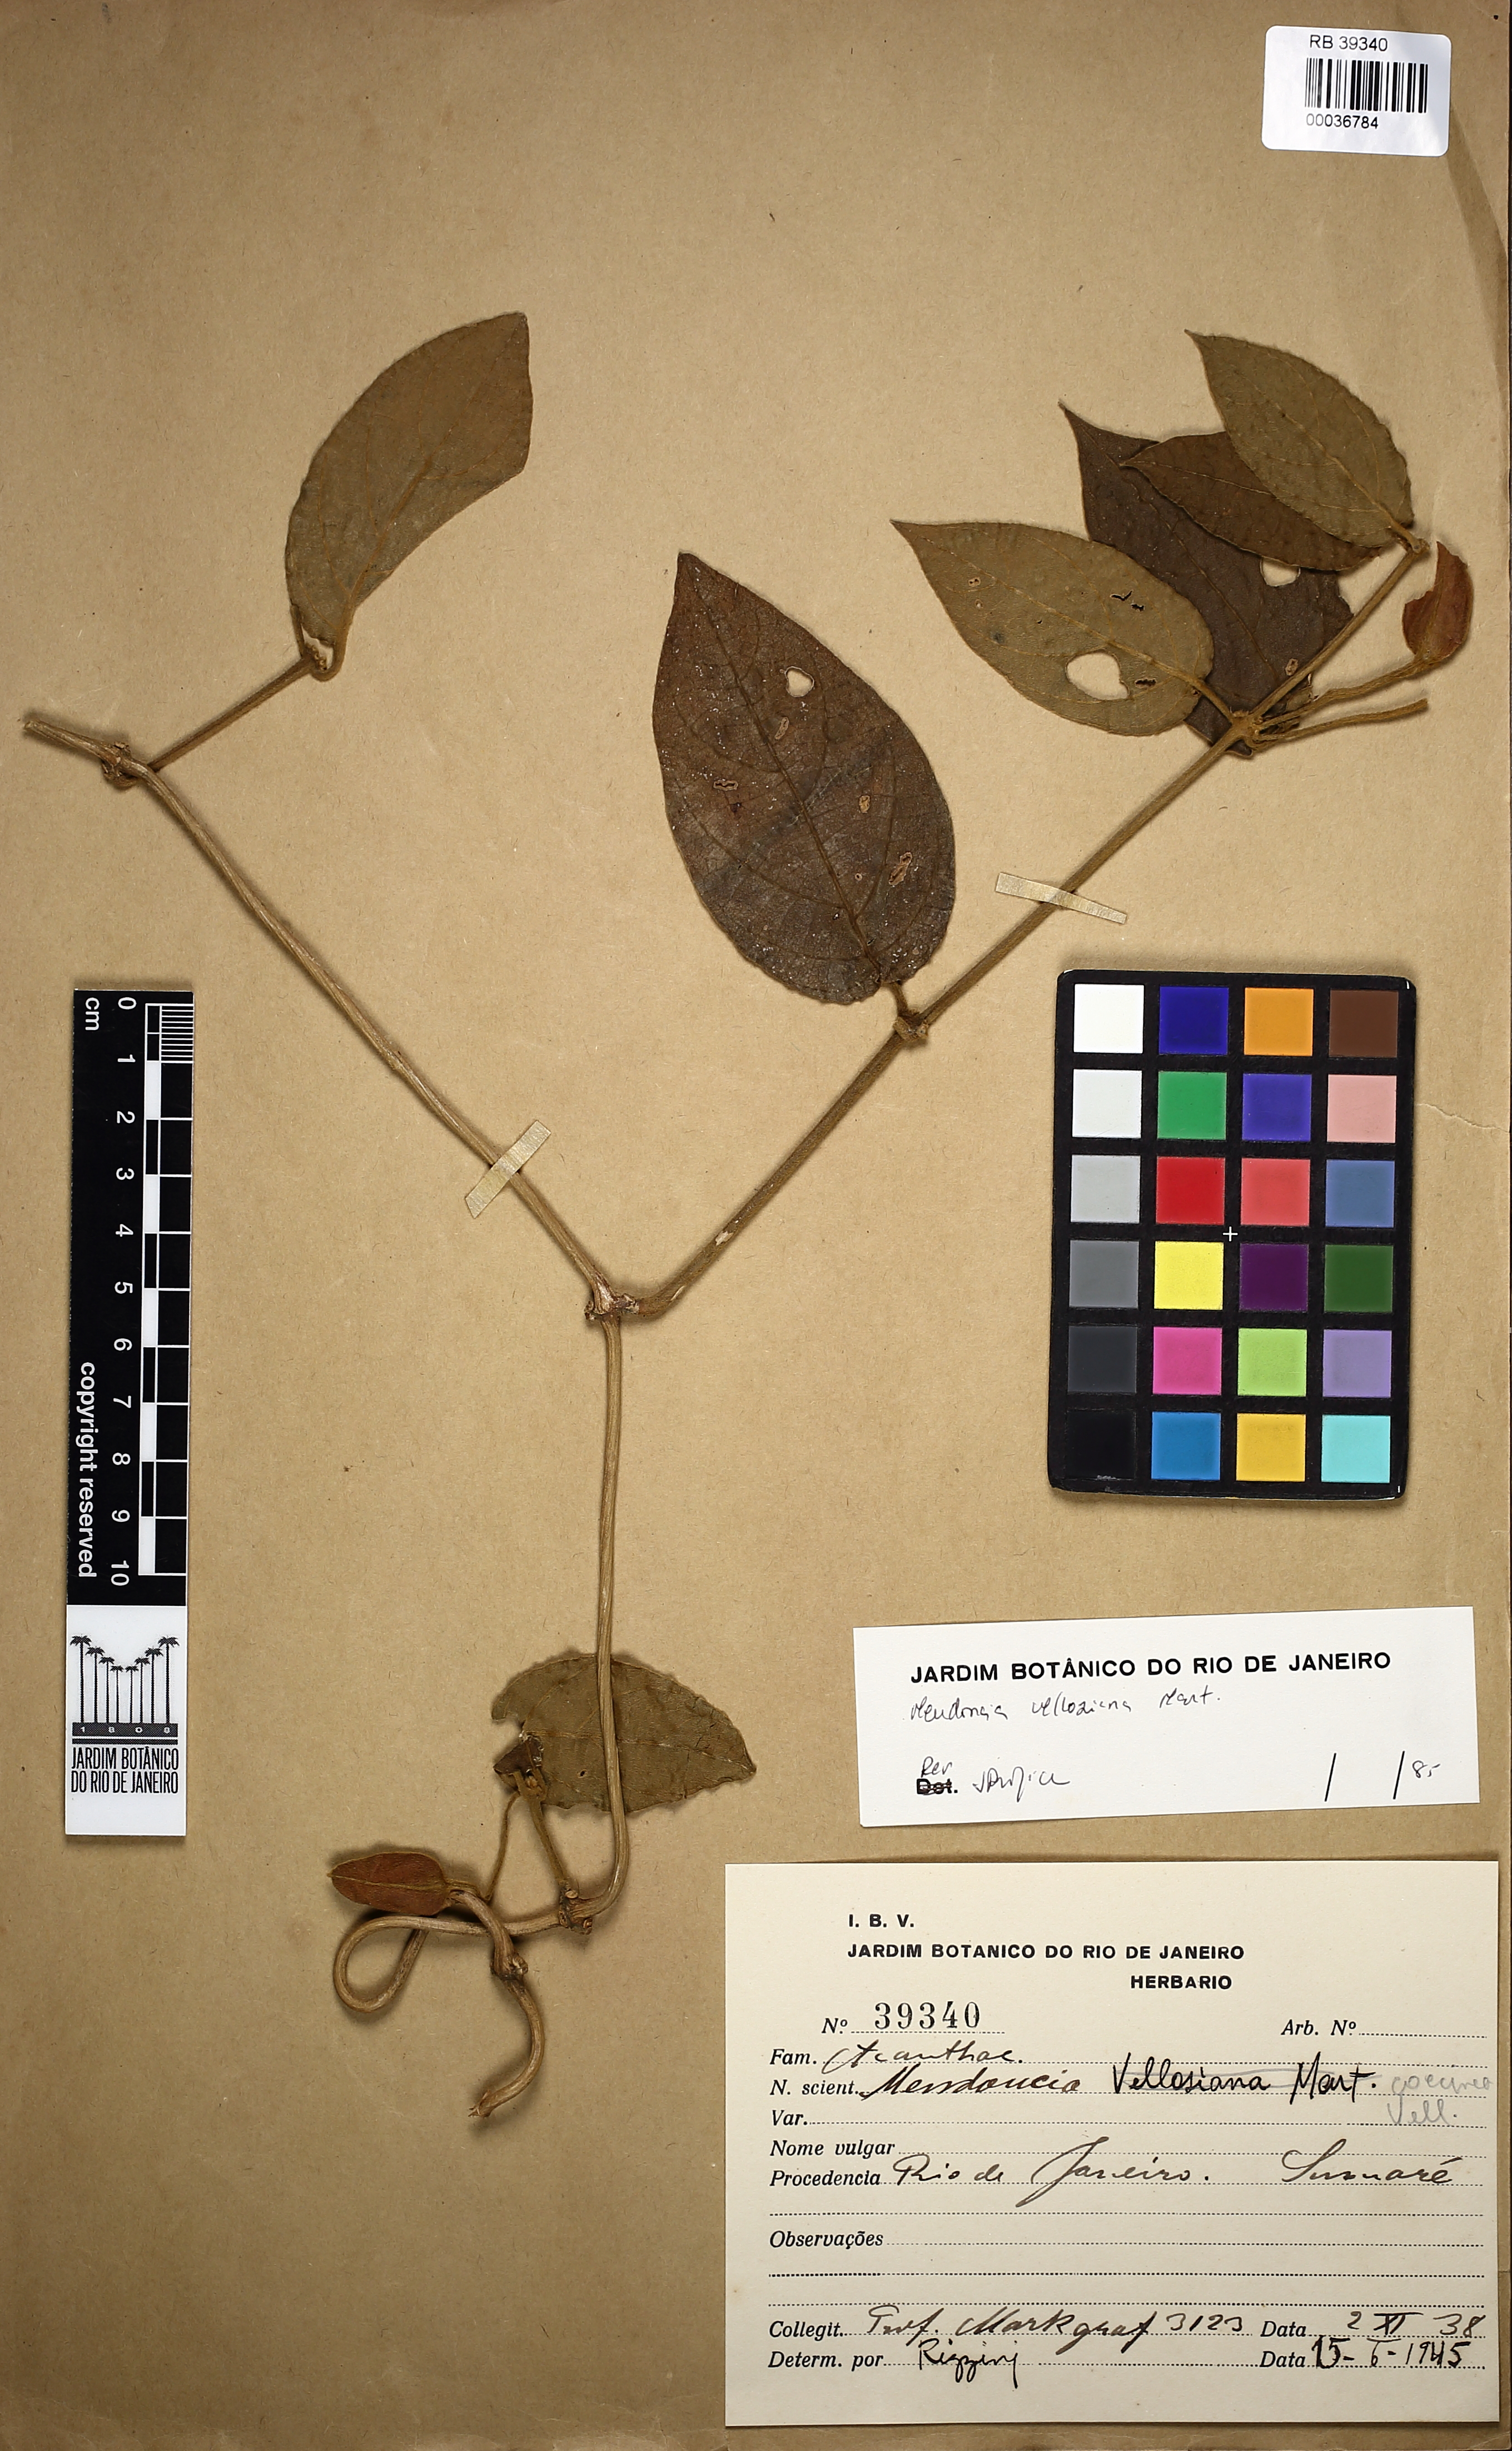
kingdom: Plantae
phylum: Tracheophyta
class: Magnoliopsida
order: Lamiales
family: Acanthaceae
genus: Mendoncia
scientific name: Mendoncia velloziana
